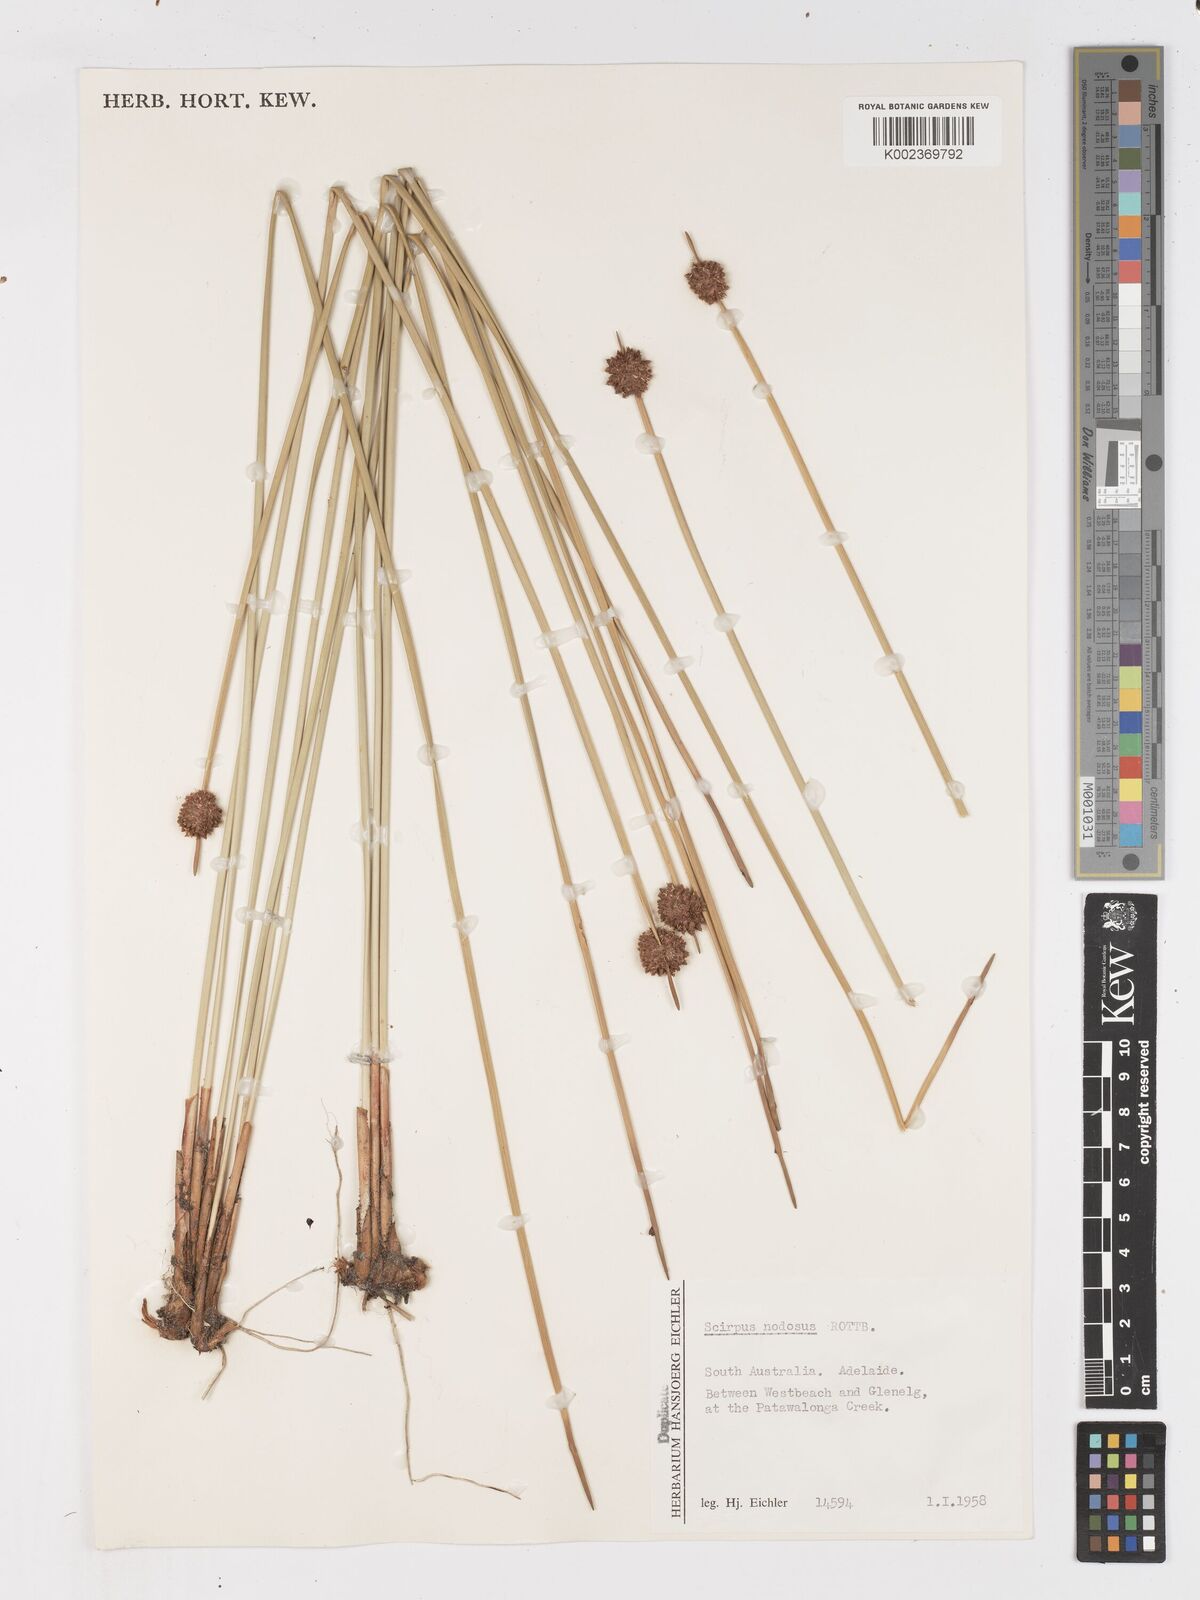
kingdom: Plantae
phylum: Tracheophyta
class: Liliopsida
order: Poales
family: Cyperaceae
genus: Ficinia
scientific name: Ficinia nodosa
